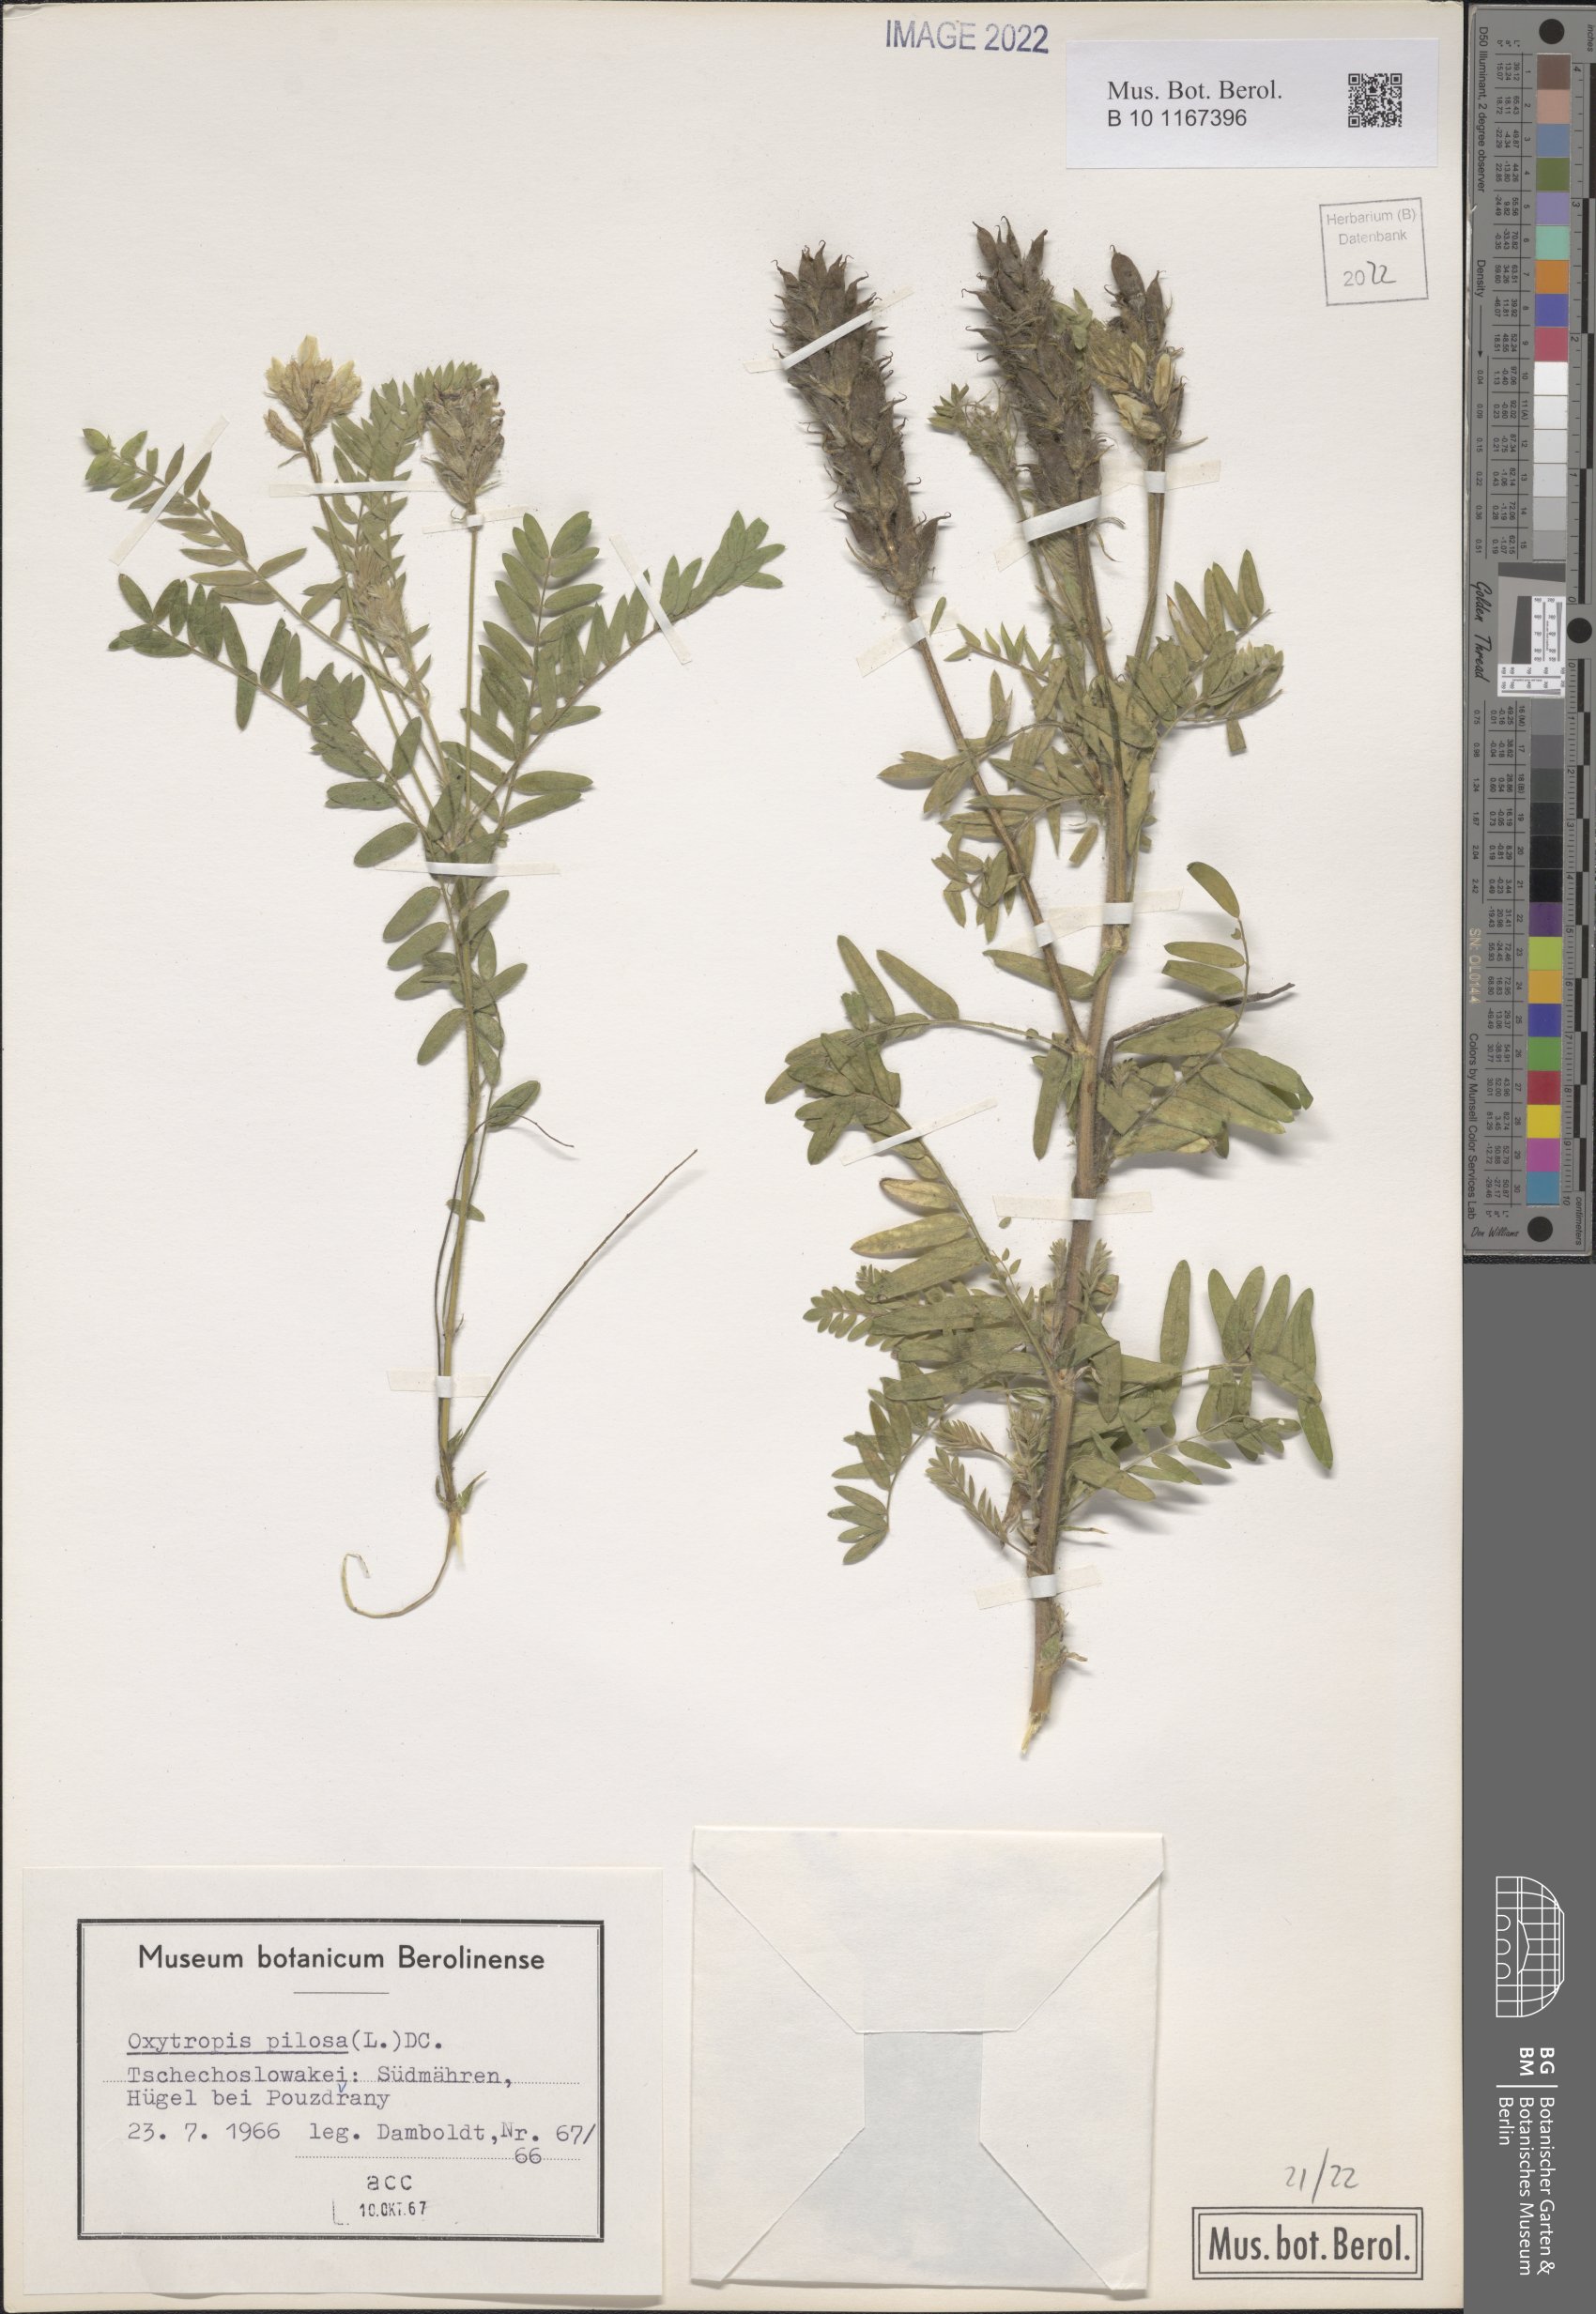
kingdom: Plantae
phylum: Tracheophyta
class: Magnoliopsida
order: Fabales
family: Fabaceae
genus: Oxytropis
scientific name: Oxytropis pilosa
